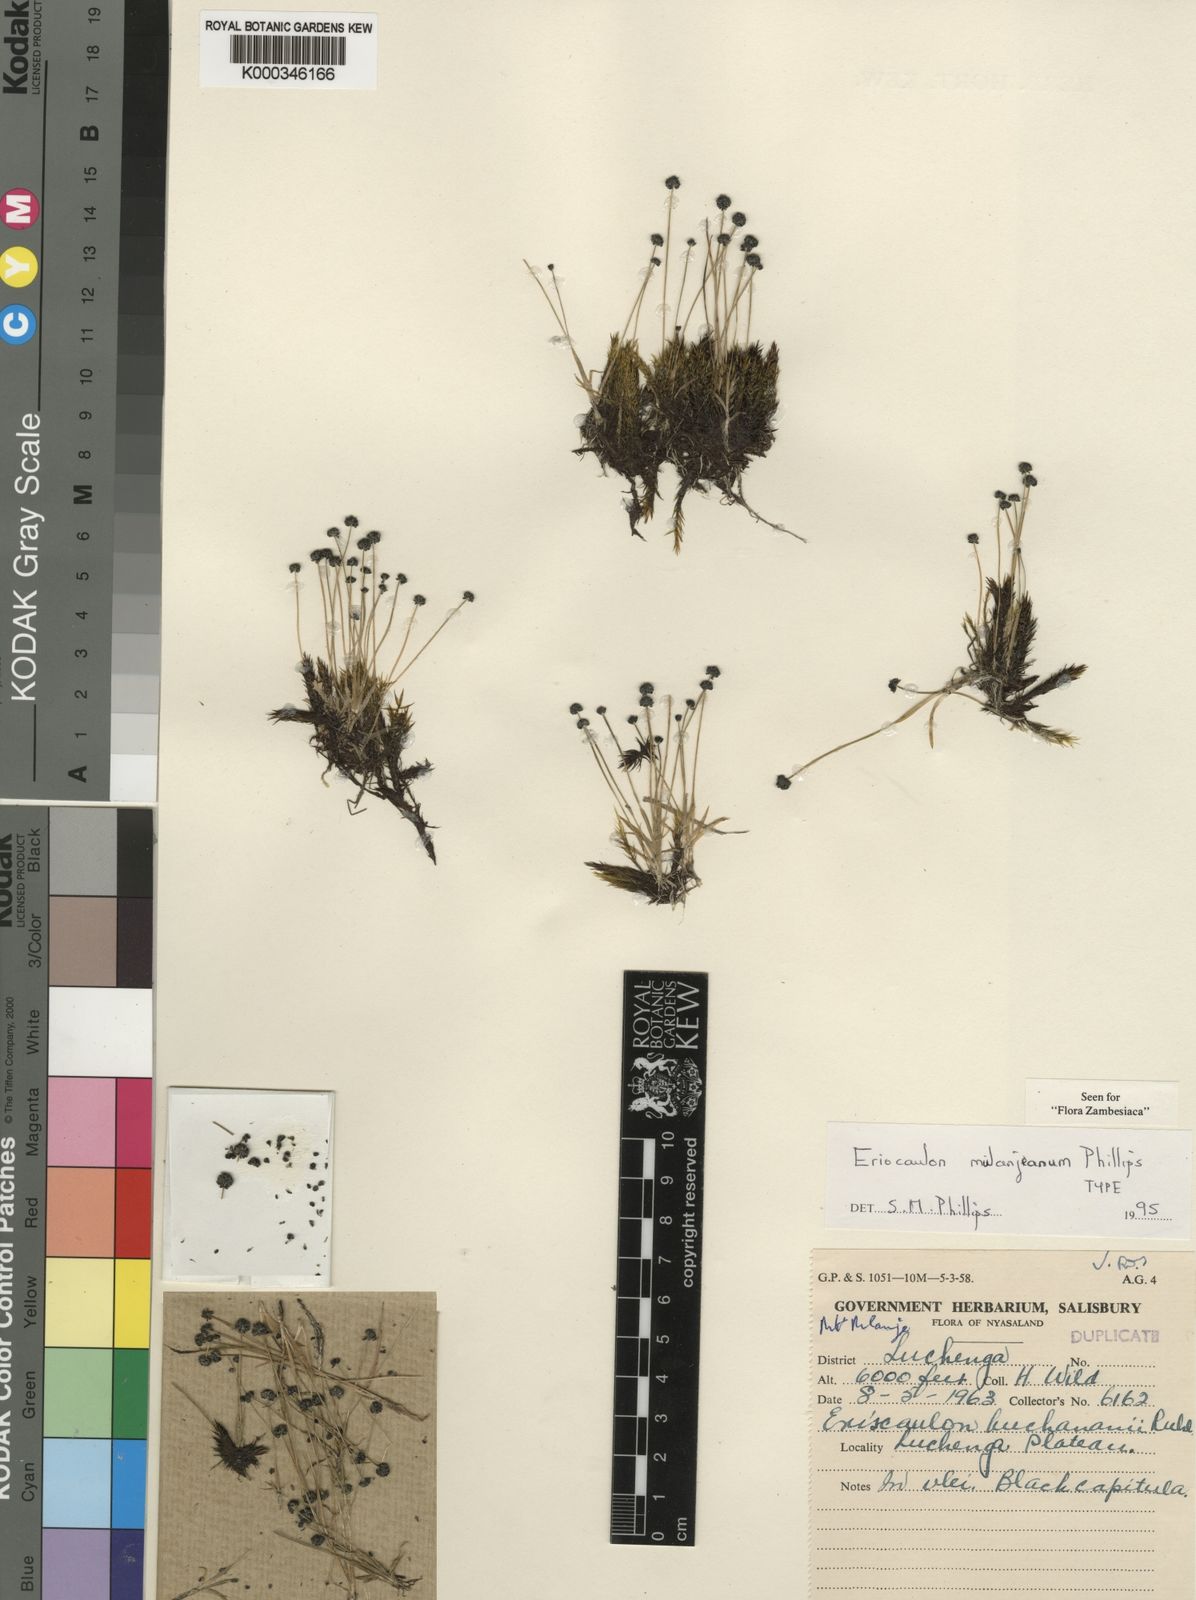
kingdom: Plantae
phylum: Tracheophyta
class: Liliopsida
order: Poales
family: Eriocaulaceae
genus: Eriocaulon
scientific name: Eriocaulon mulanjeanum
